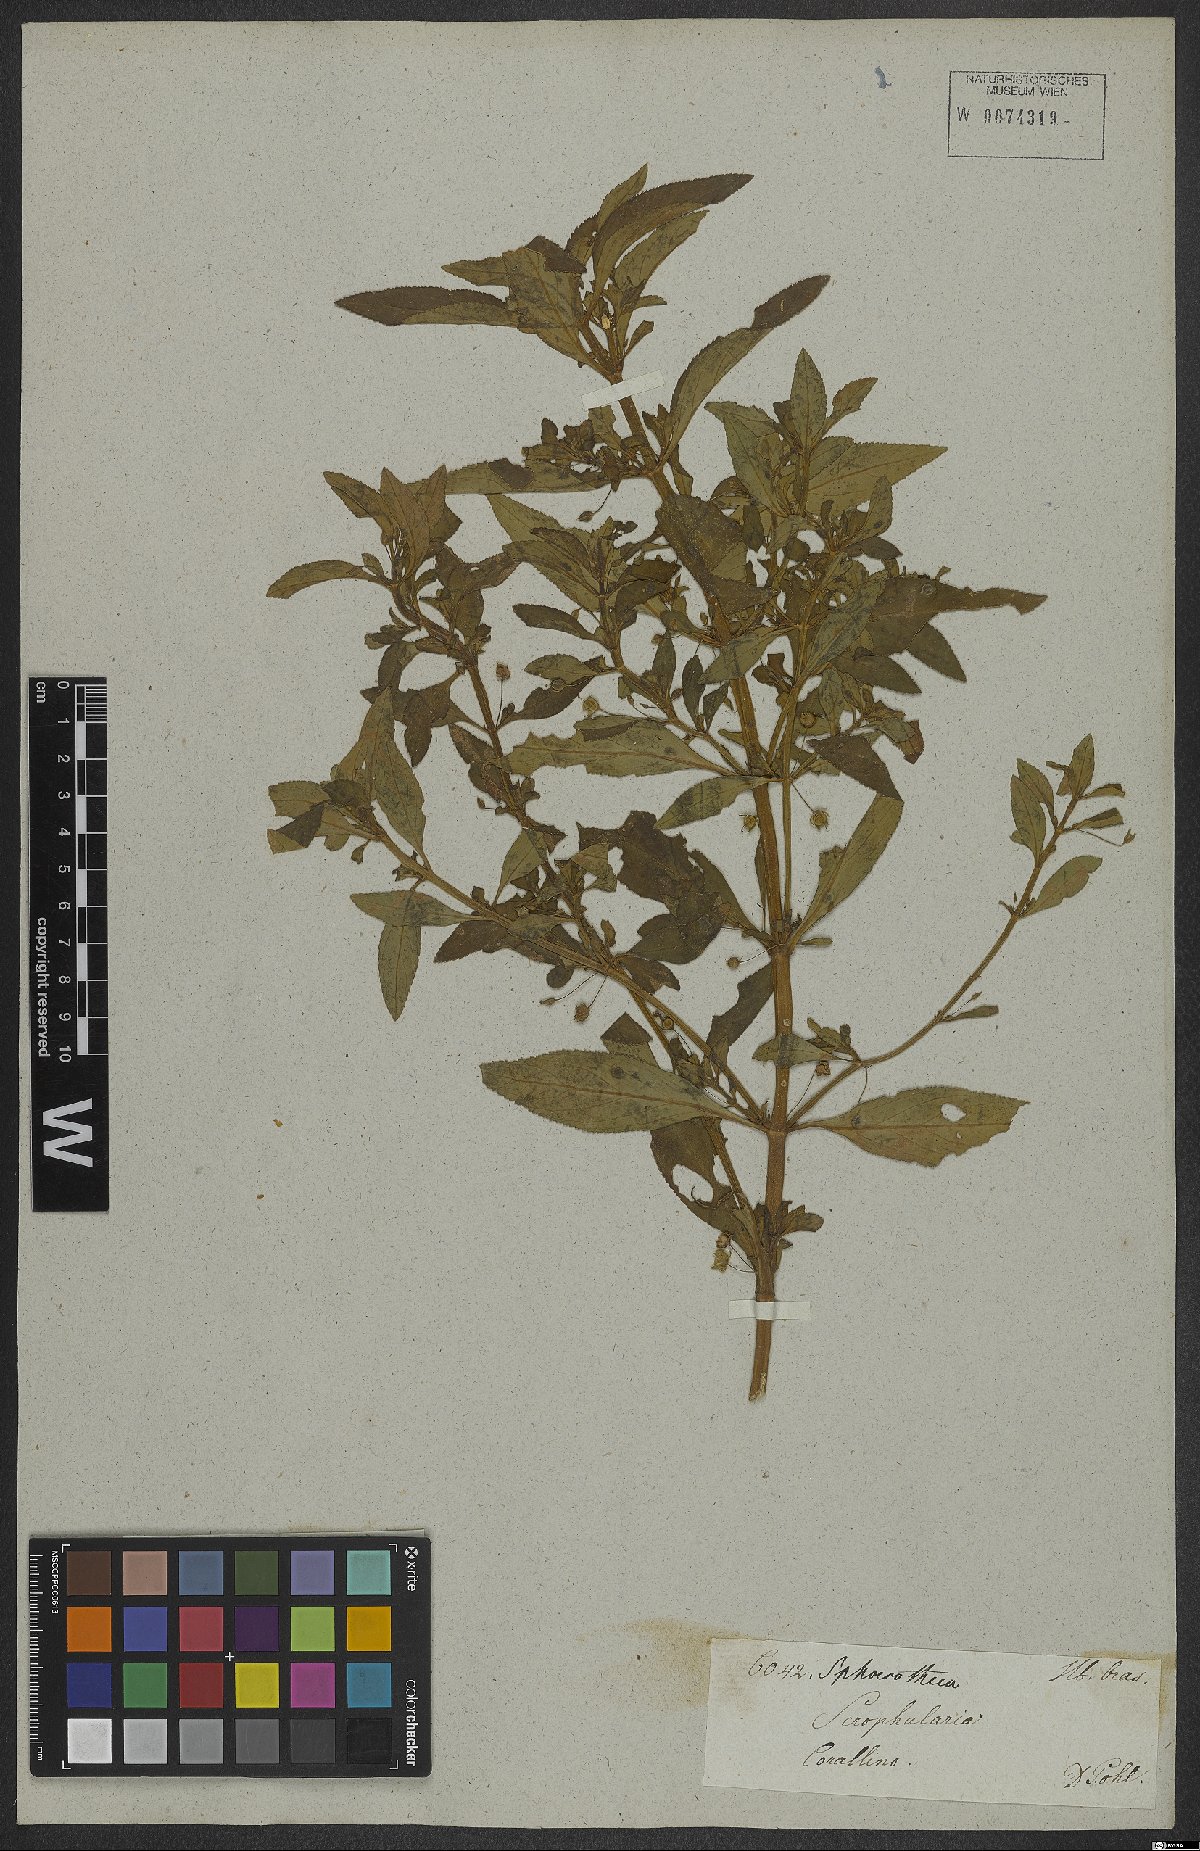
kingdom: Plantae
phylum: Tracheophyta
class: Magnoliopsida
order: Lamiales
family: Plantaginaceae
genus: Conobea
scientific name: Conobea scoparioides
